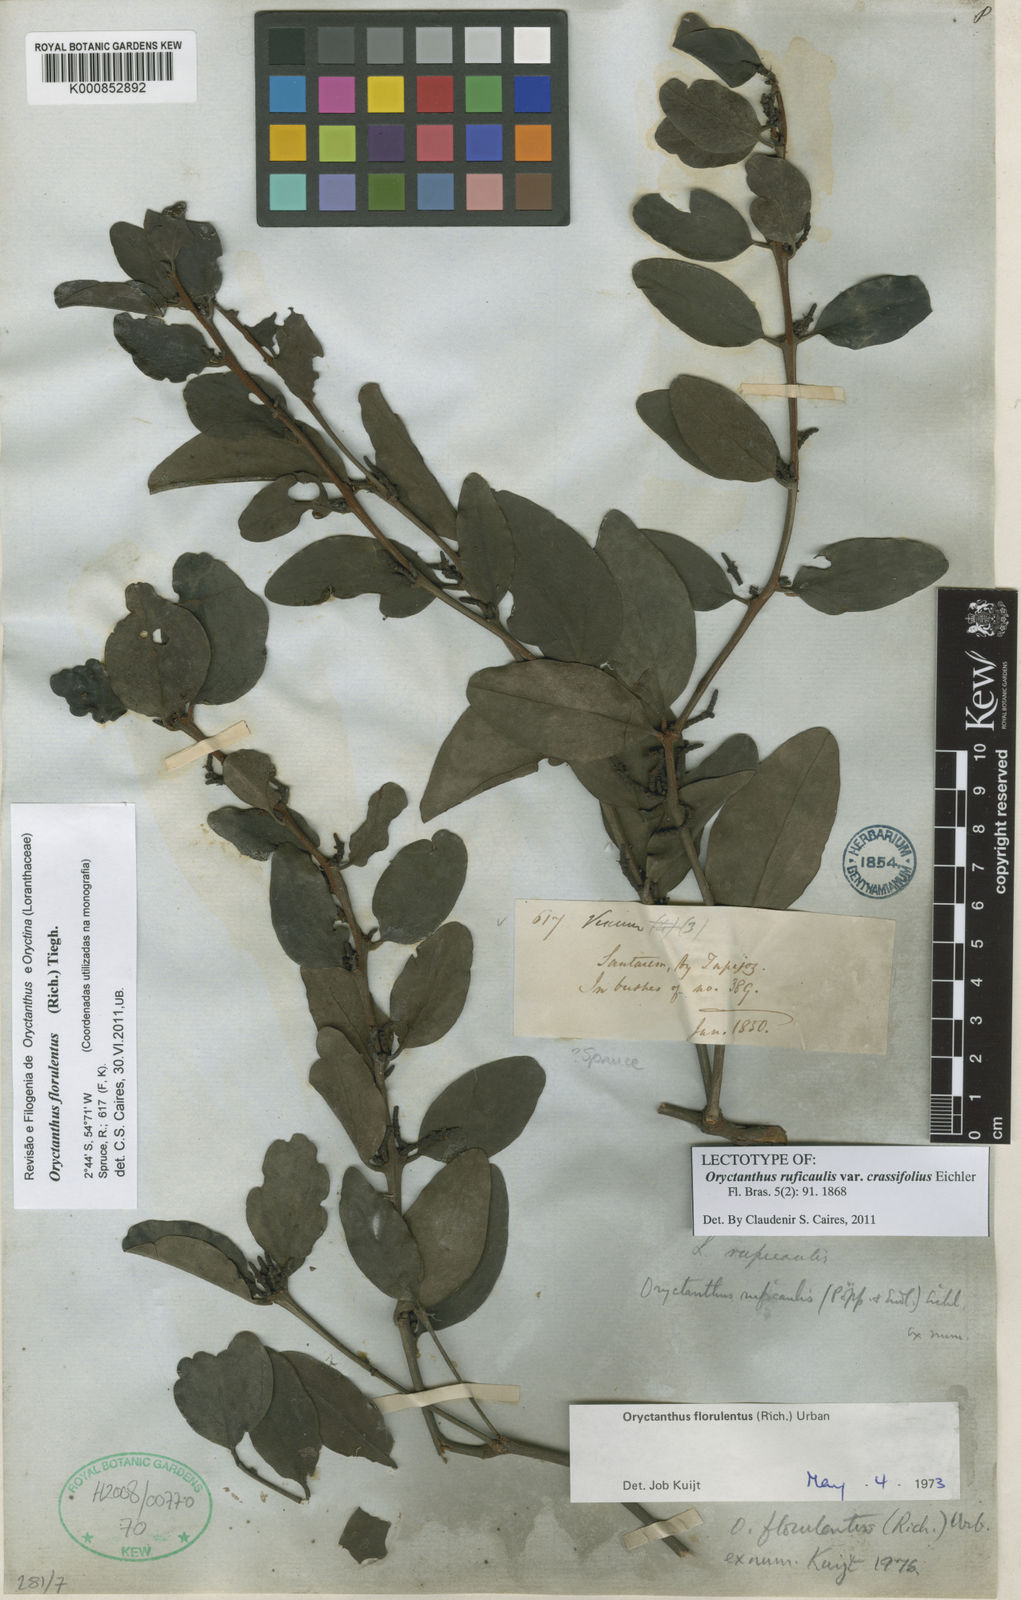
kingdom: Plantae
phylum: Tracheophyta
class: Magnoliopsida
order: Santalales
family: Loranthaceae
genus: Oryctanthus
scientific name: Oryctanthus florulentus
